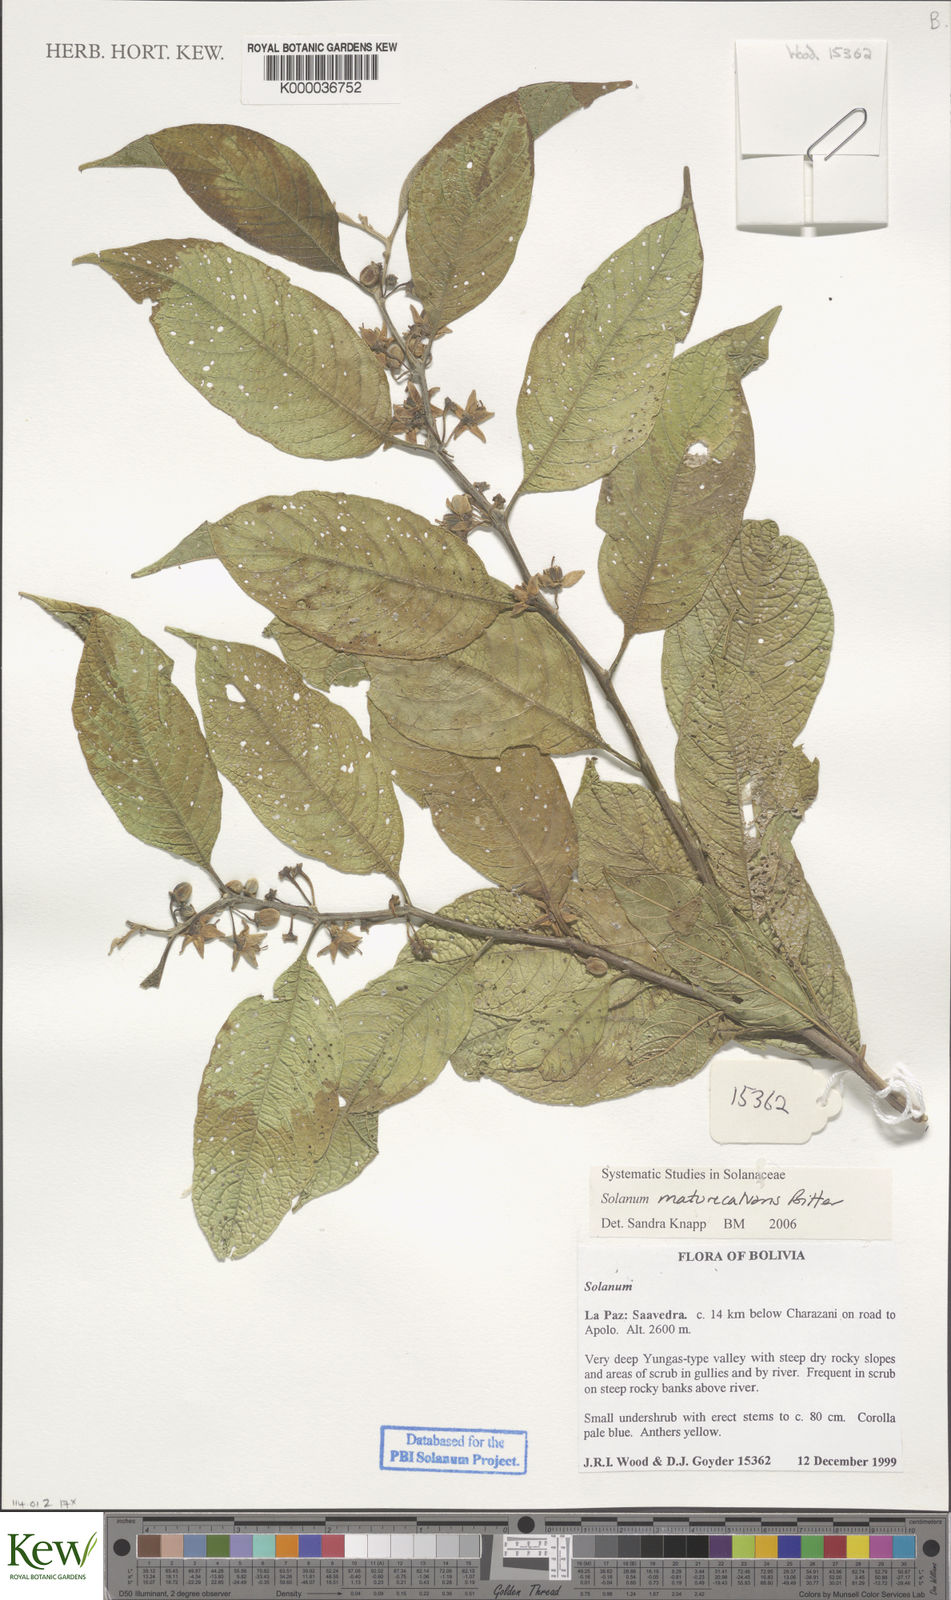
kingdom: Plantae
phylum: Tracheophyta
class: Magnoliopsida
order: Solanales
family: Solanaceae
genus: Solanum
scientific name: Solanum maturecalvans
